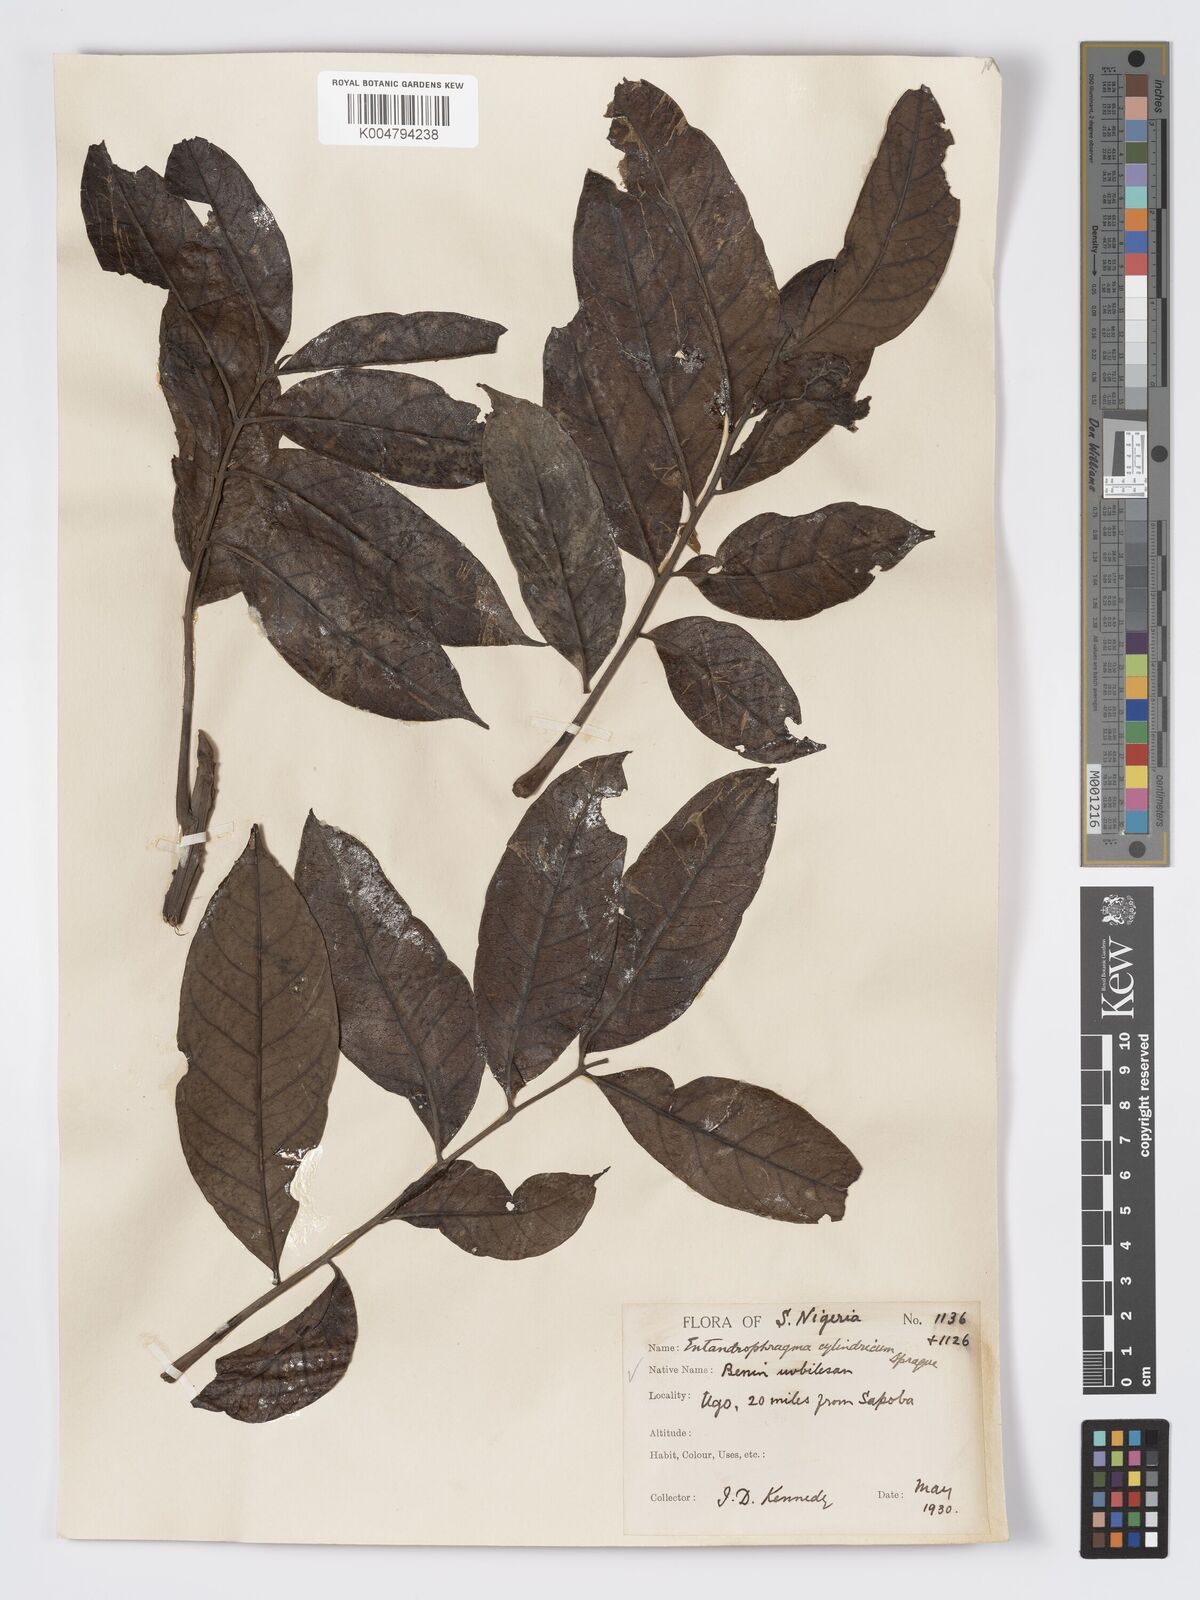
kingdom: Plantae
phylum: Tracheophyta
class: Magnoliopsida
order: Sapindales
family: Meliaceae
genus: Entandrophragma
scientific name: Entandrophragma cylindricum
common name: Sapele
